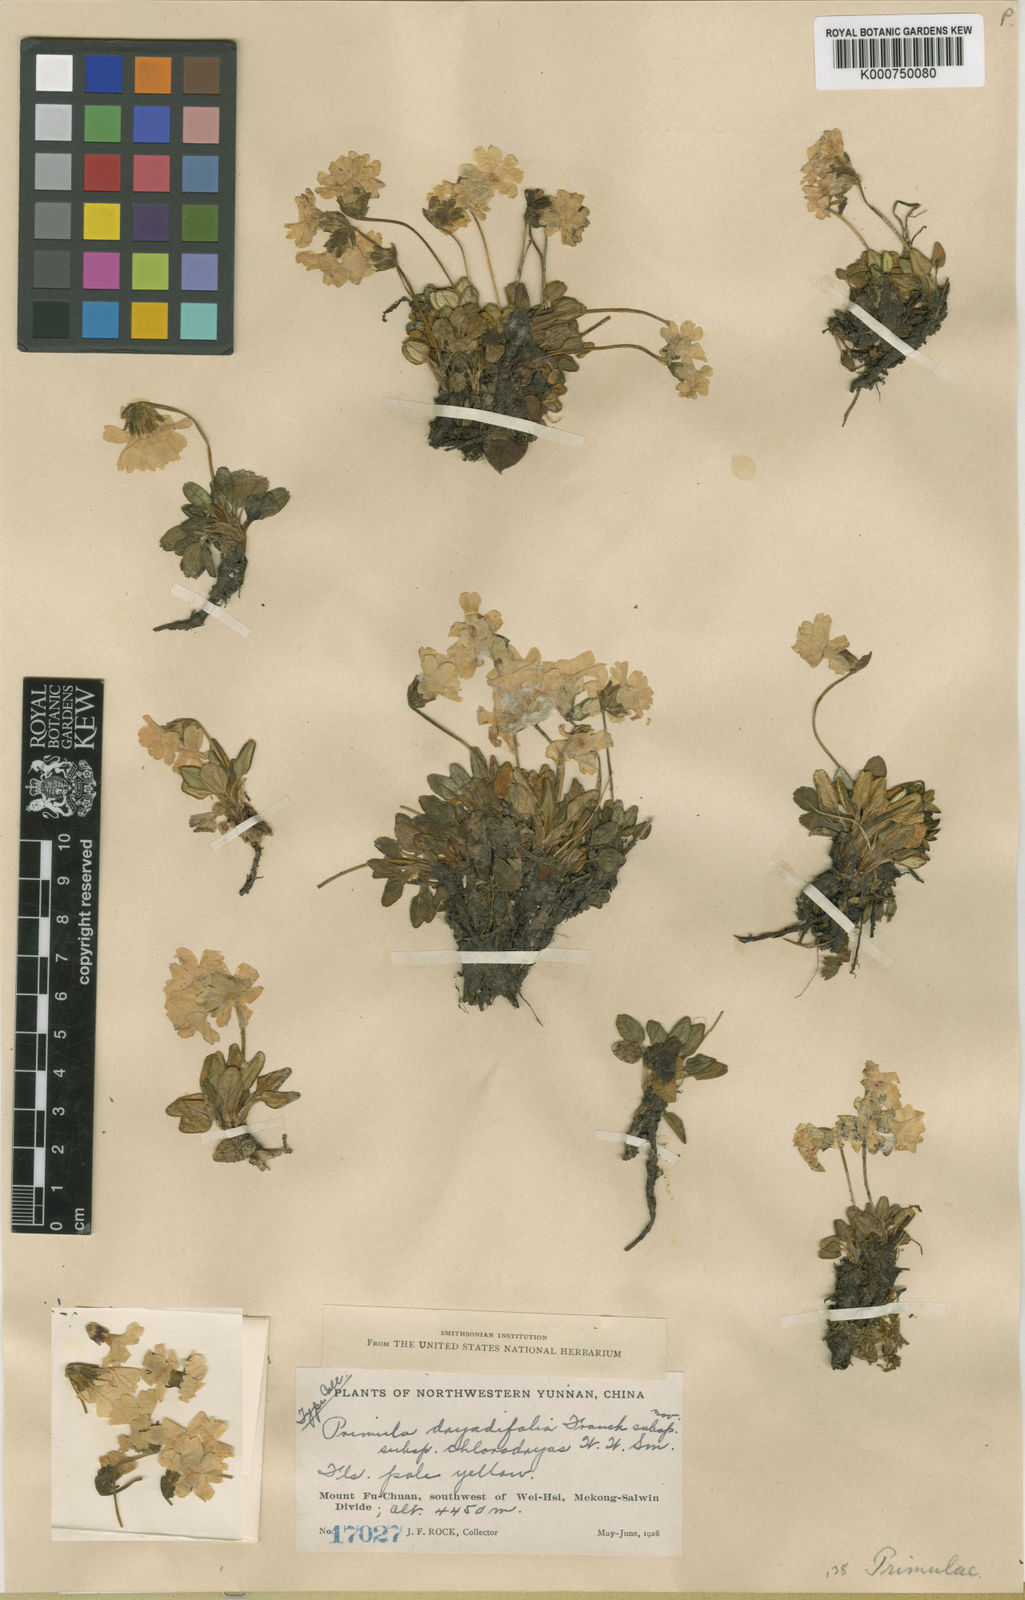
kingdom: Plantae
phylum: Tracheophyta
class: Magnoliopsida
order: Ericales
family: Primulaceae
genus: Primula
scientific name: Primula dryadifolia
